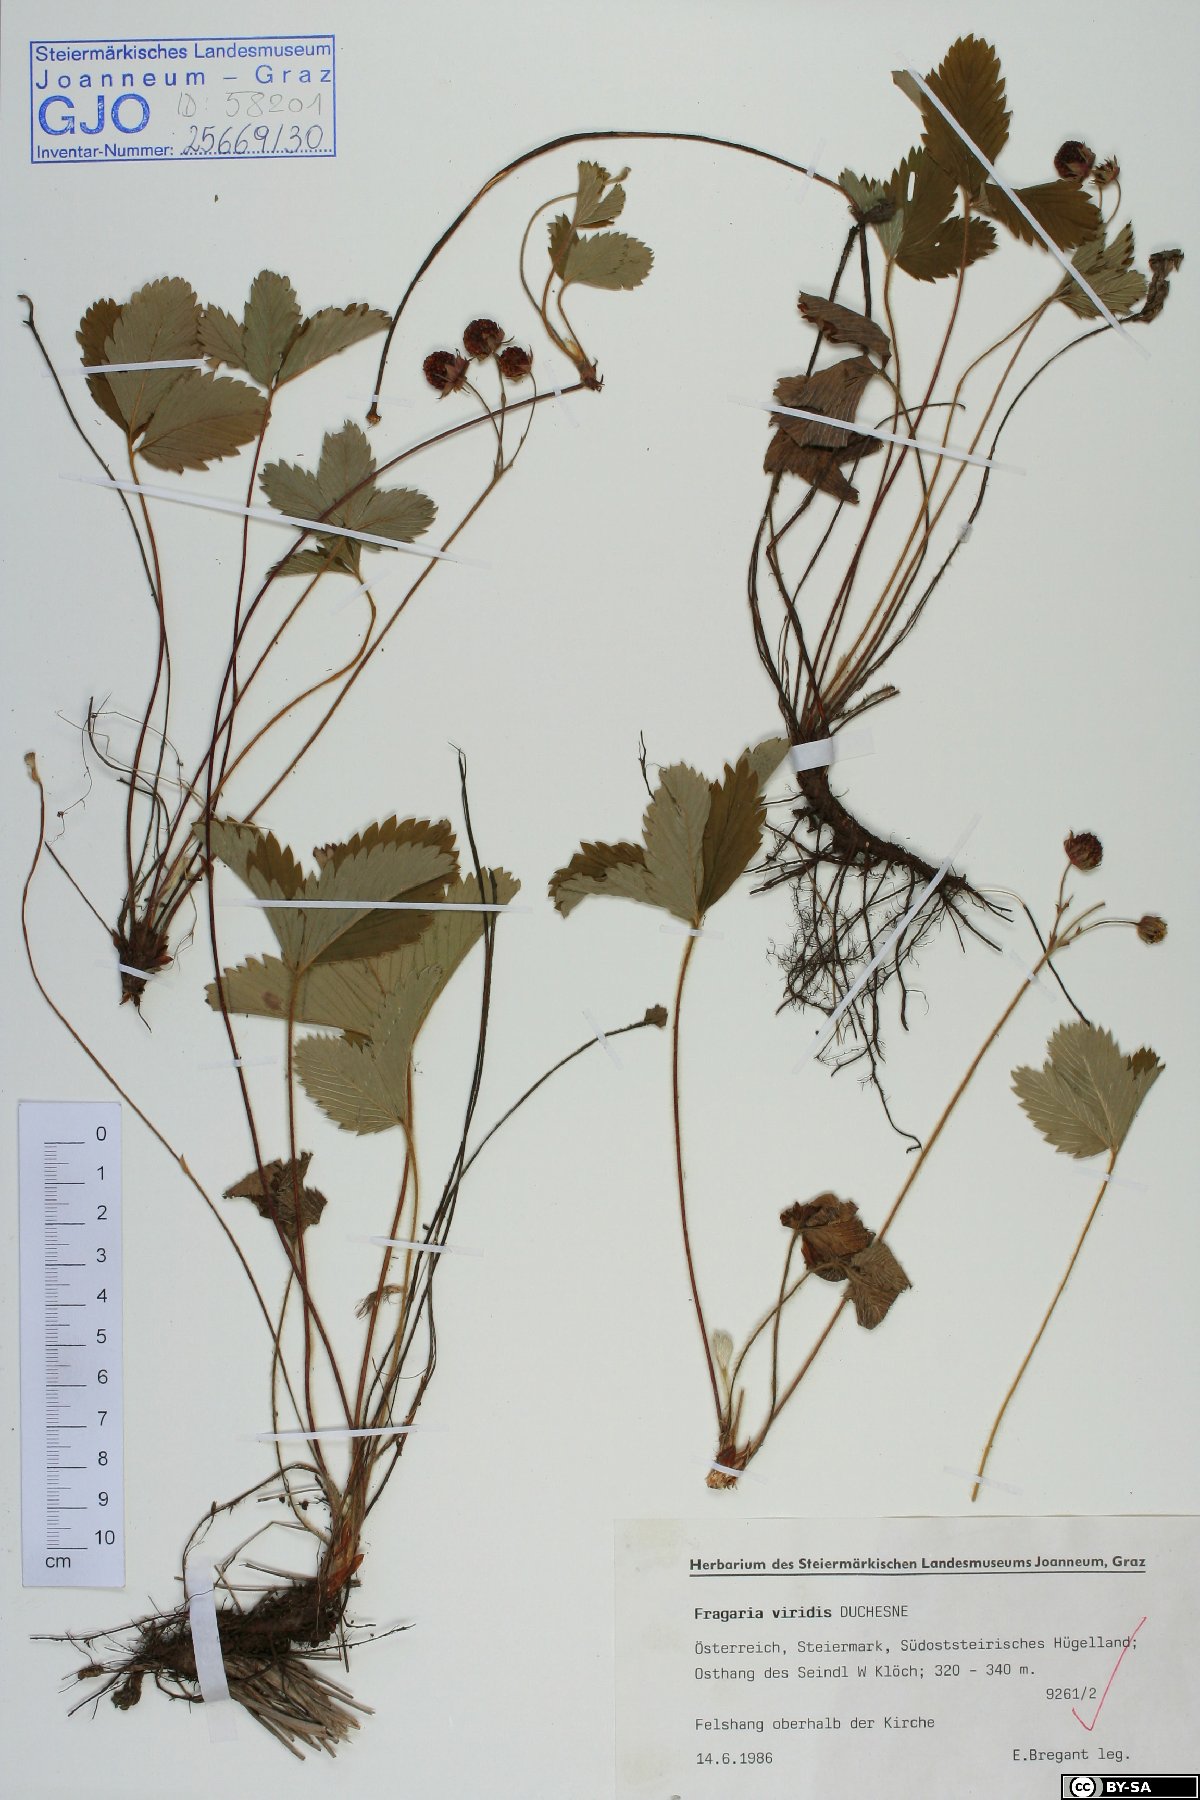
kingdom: Plantae
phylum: Tracheophyta
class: Magnoliopsida
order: Rosales
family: Rosaceae
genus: Fragaria
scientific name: Fragaria viridis
